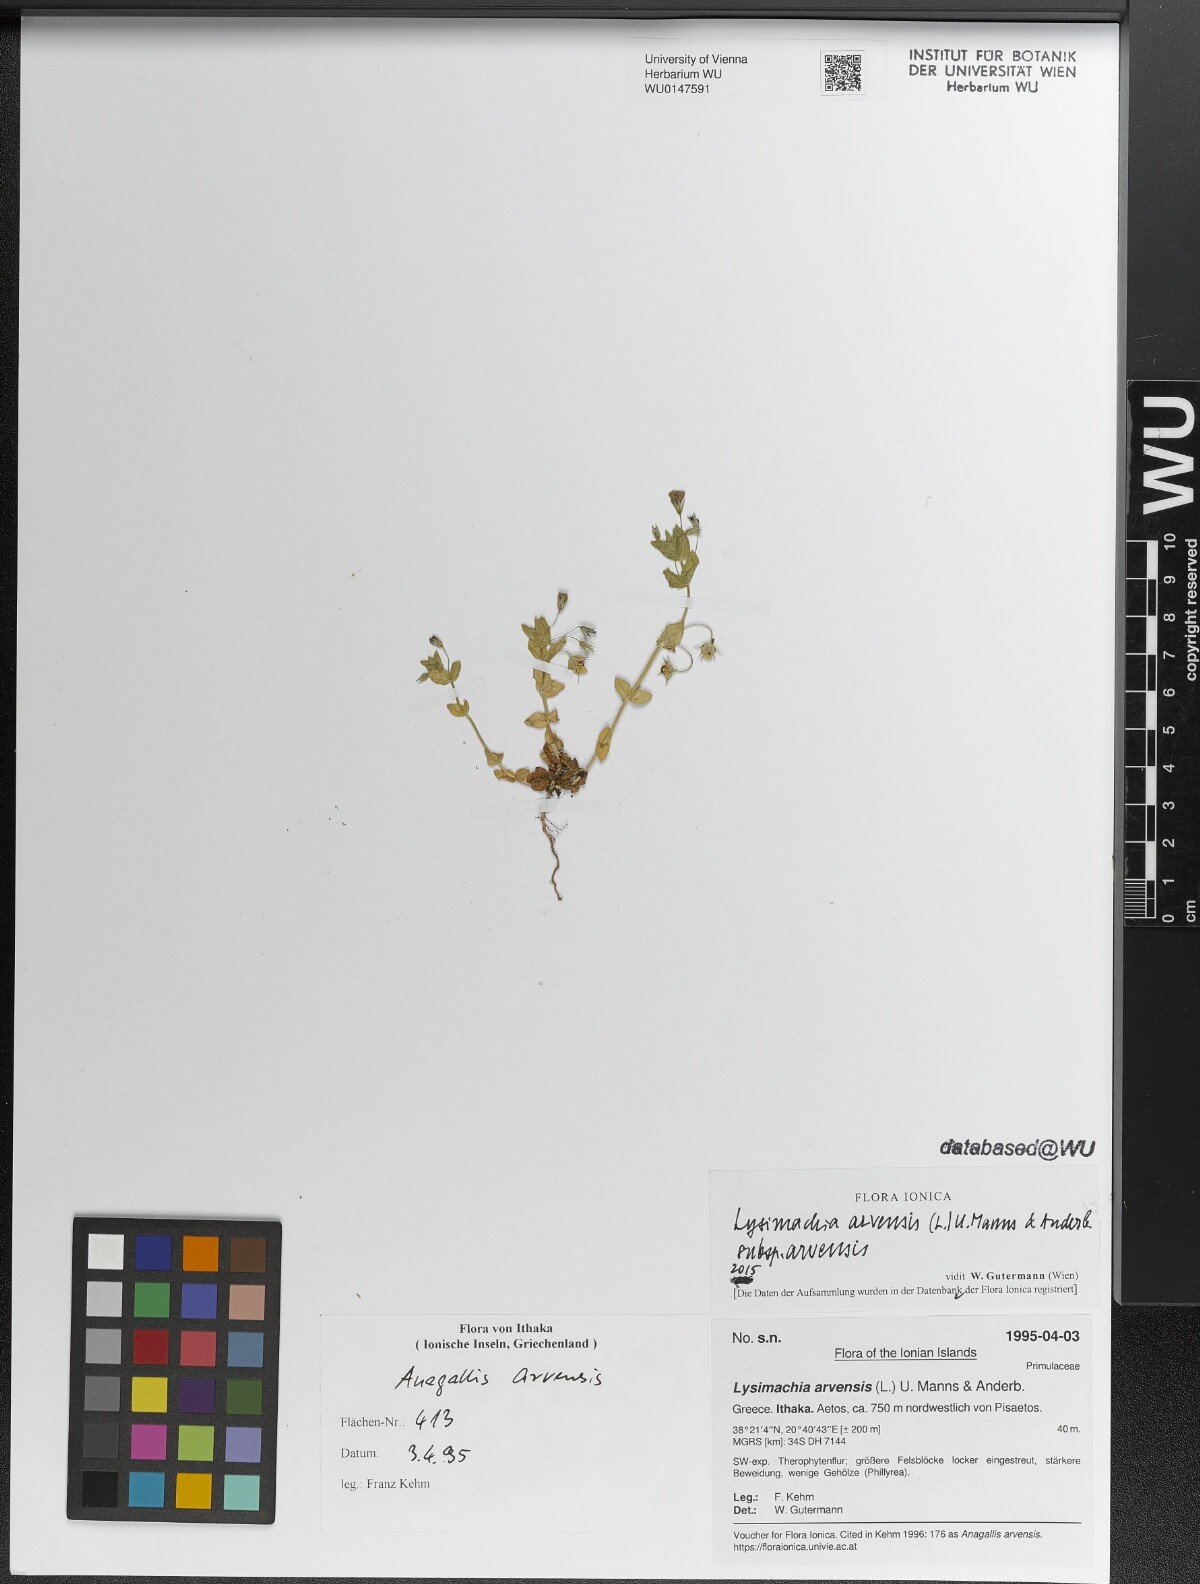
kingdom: Plantae
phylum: Tracheophyta
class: Magnoliopsida
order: Ericales
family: Primulaceae
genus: Lysimachia
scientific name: Lysimachia arvensis
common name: Scarlet pimpernel
